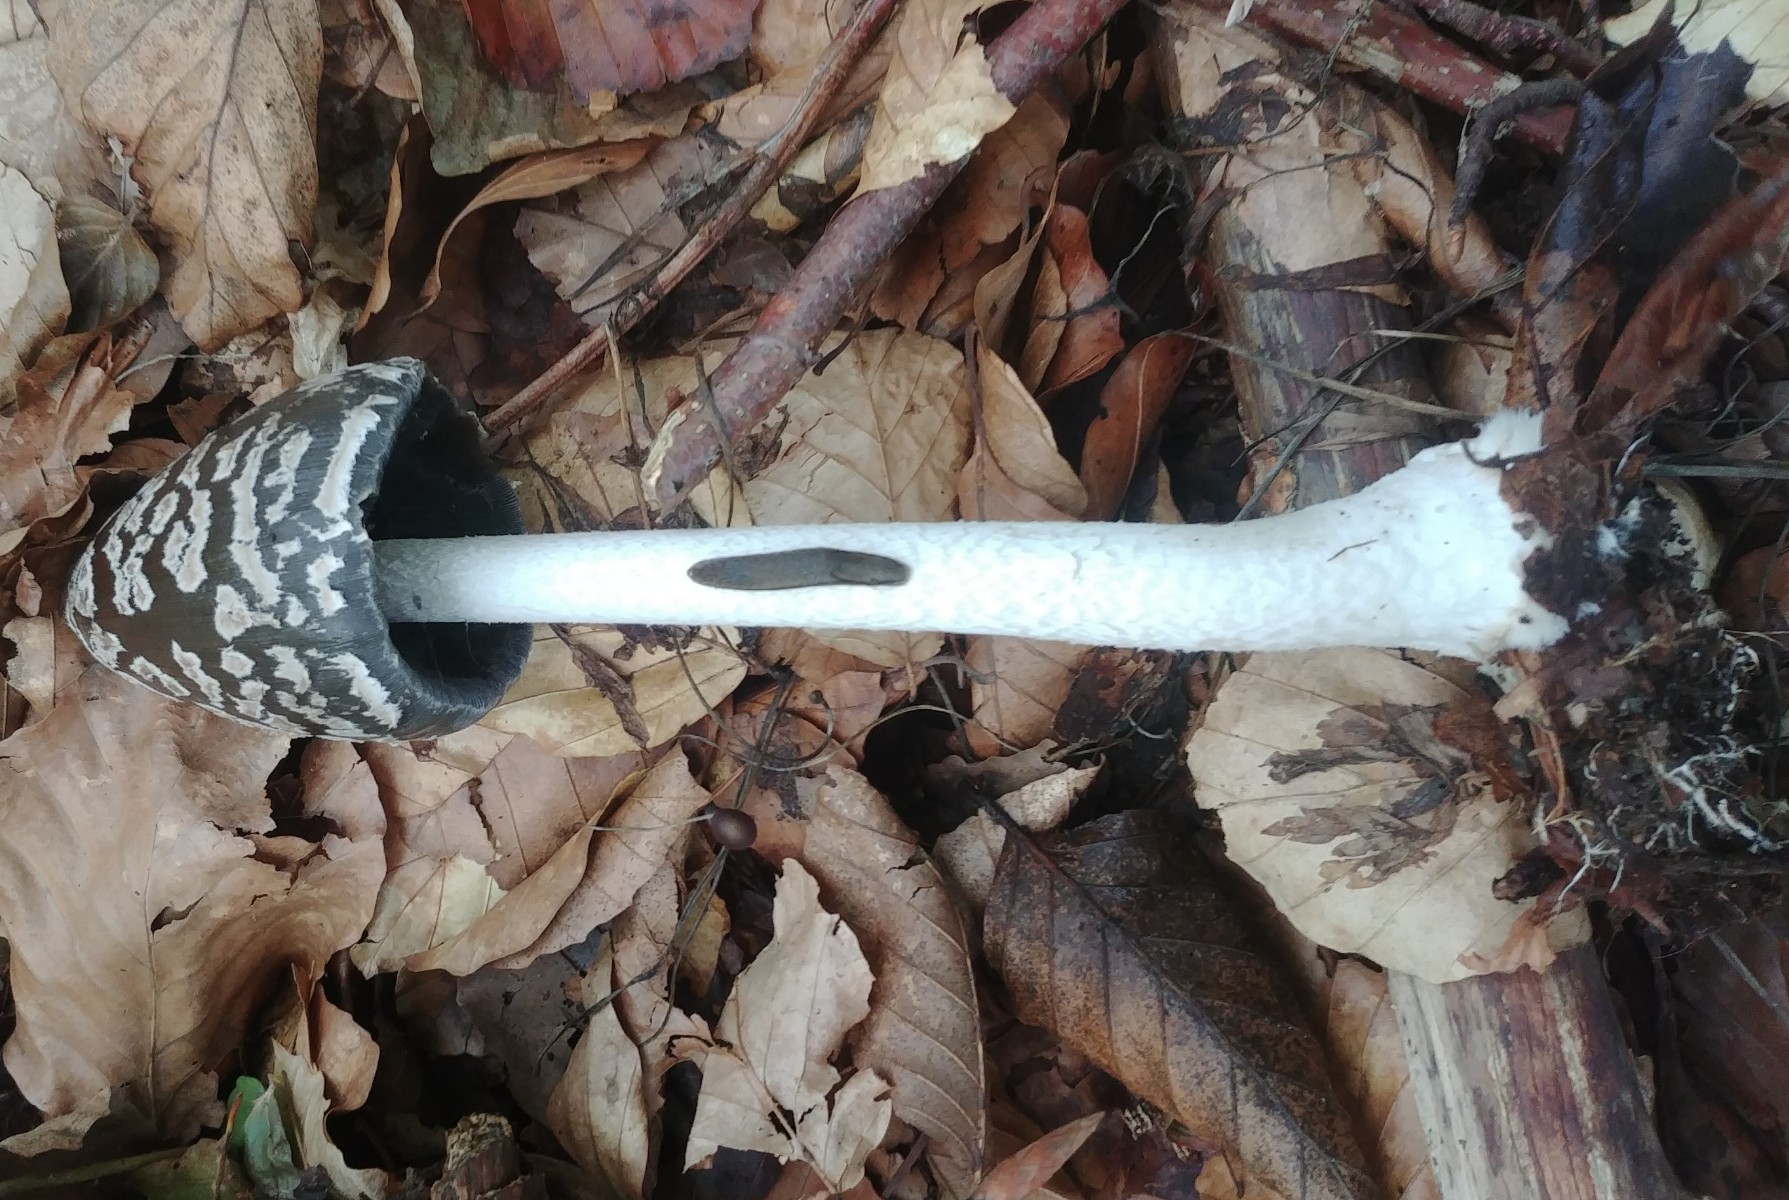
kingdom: Fungi
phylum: Basidiomycota
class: Agaricomycetes
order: Agaricales
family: Psathyrellaceae
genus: Coprinopsis
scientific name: Coprinopsis picacea
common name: skade-blækhat
